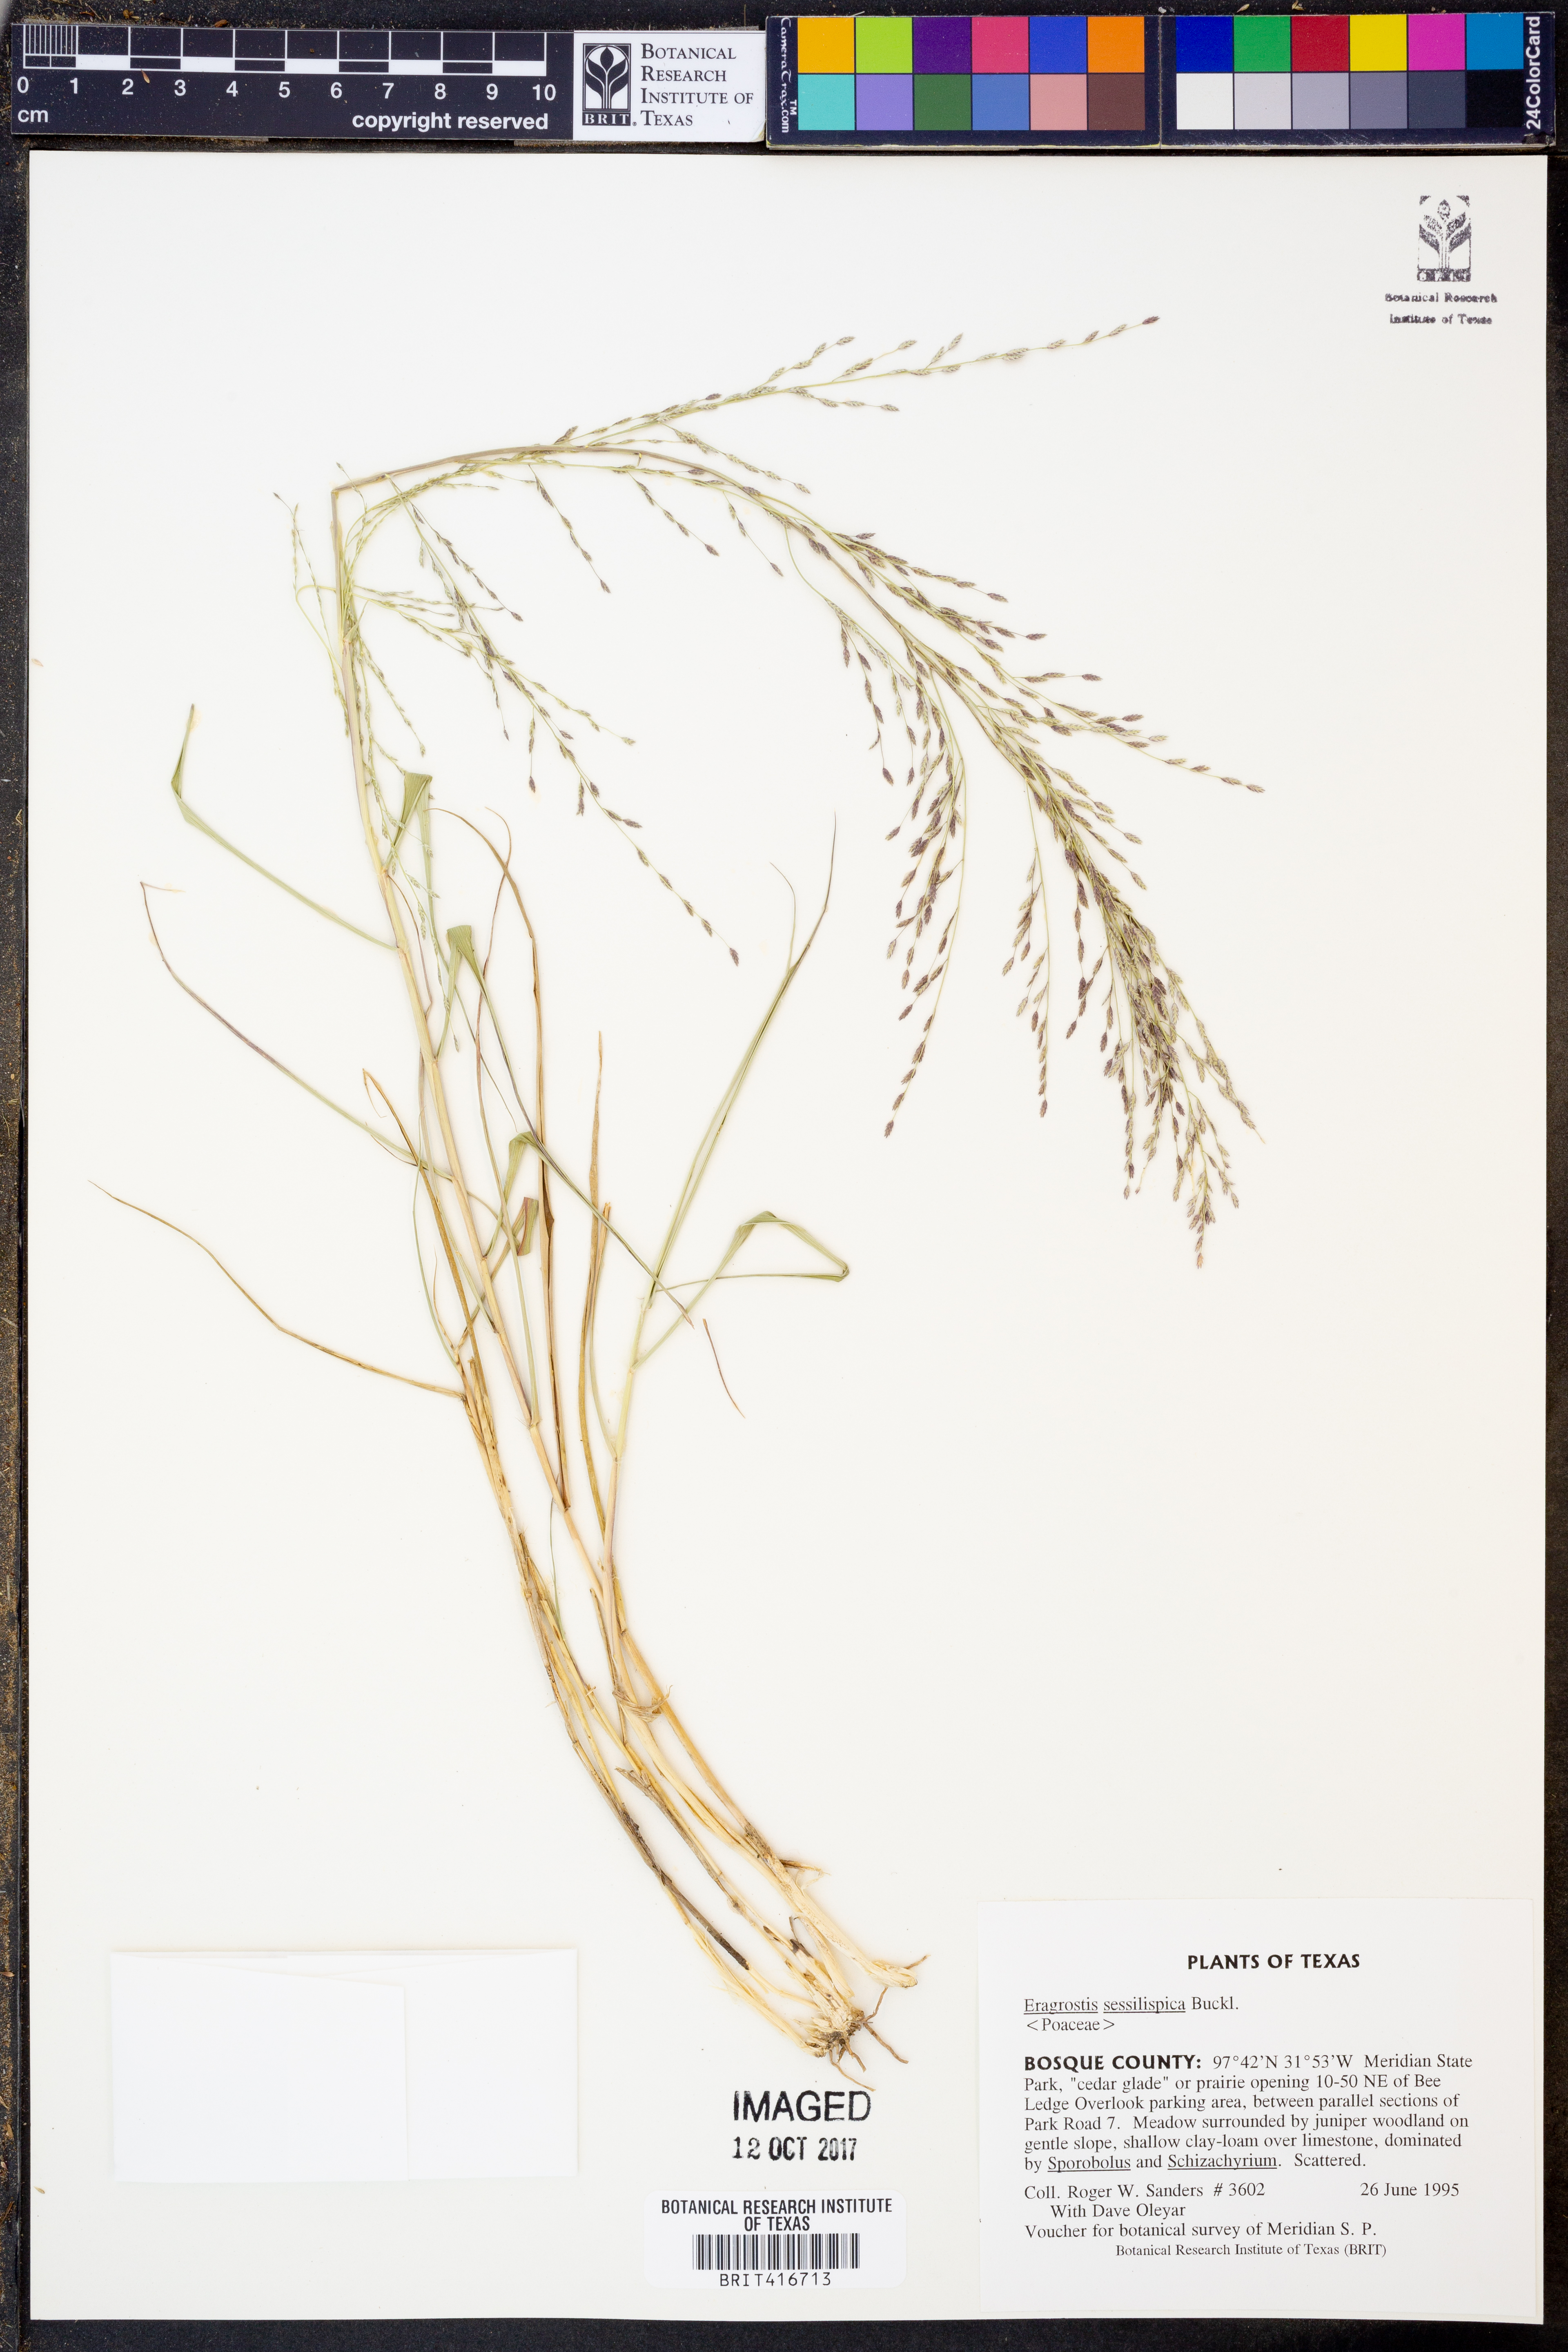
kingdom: Plantae
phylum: Tracheophyta
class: Liliopsida
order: Poales
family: Poaceae
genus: Eragrostis
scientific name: Eragrostis sessilispica
